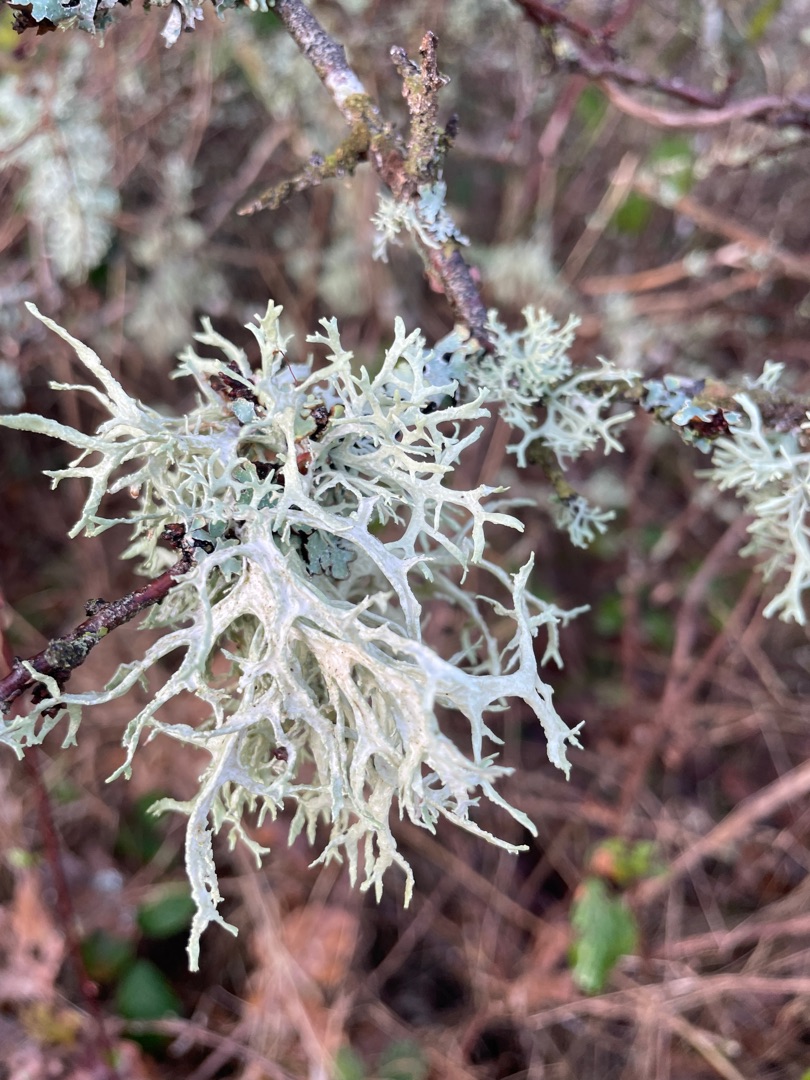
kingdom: Fungi
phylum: Ascomycota
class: Lecanoromycetes
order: Lecanorales
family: Parmeliaceae
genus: Evernia
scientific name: Evernia prunastri
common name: Almindelig slåenlav
